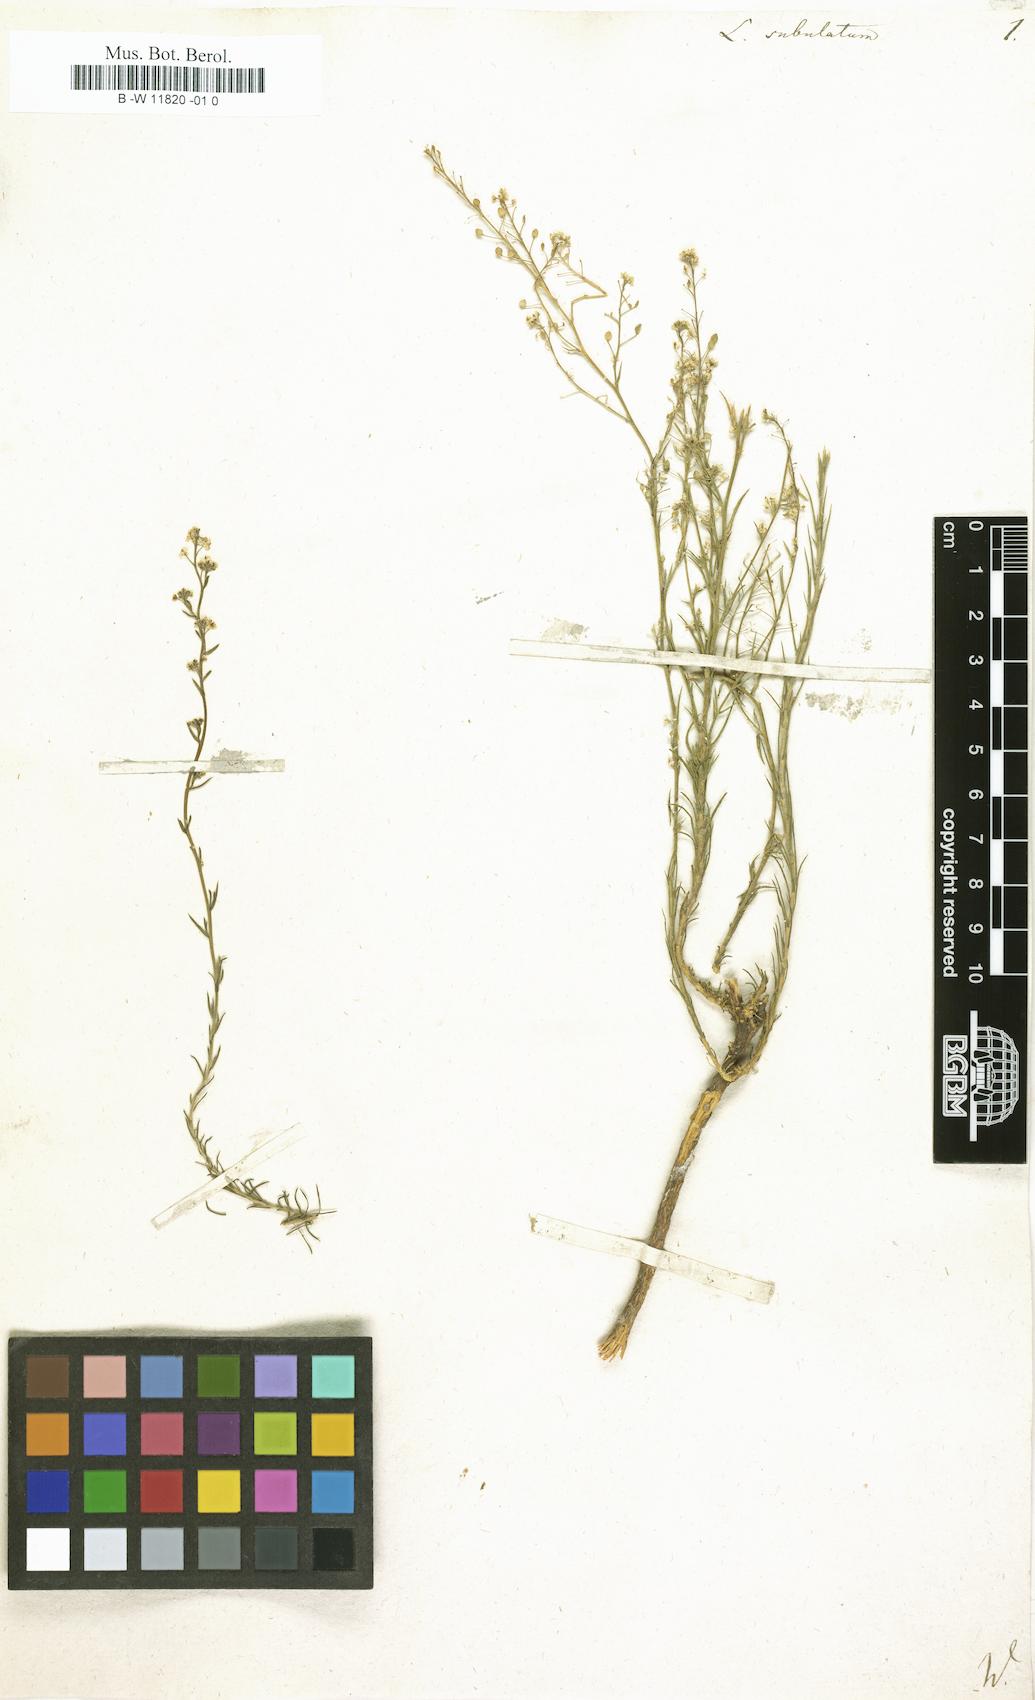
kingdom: Plantae
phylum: Tracheophyta
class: Magnoliopsida
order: Brassicales
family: Brassicaceae
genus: Lepidium
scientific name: Lepidium subulatum
